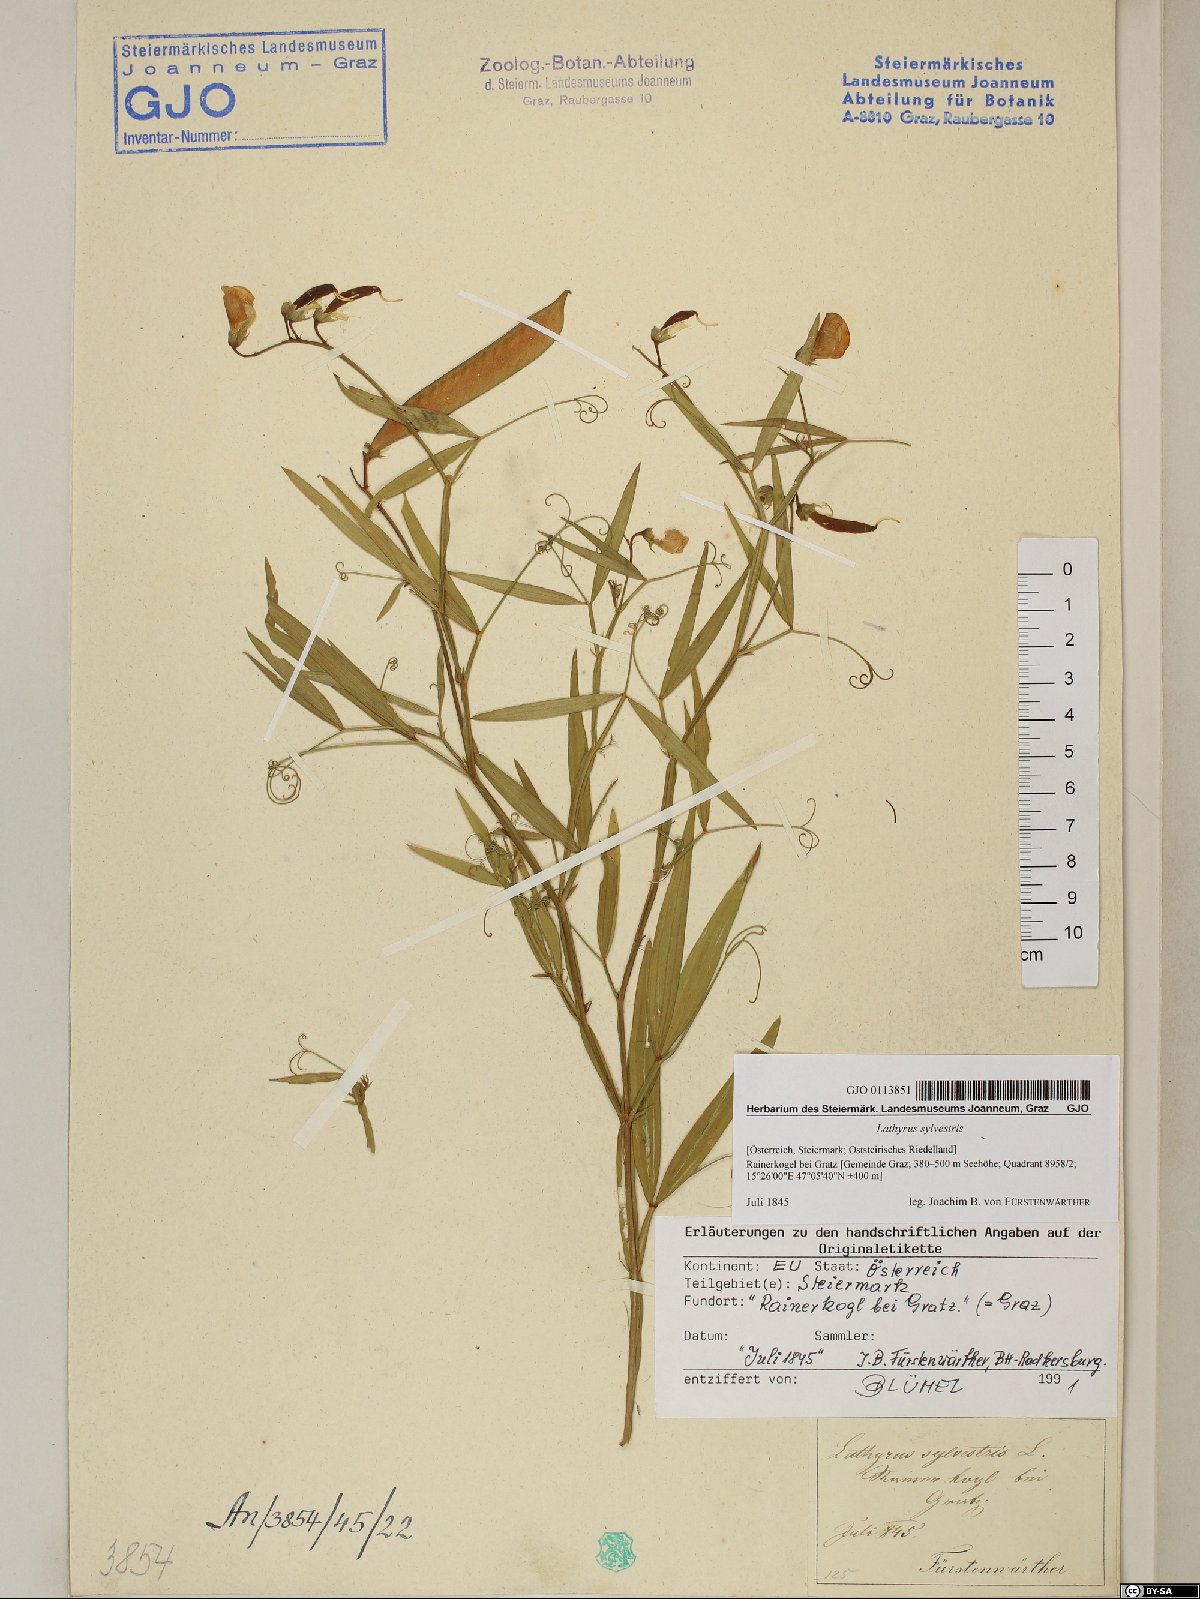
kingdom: Plantae
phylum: Tracheophyta
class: Magnoliopsida
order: Fabales
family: Fabaceae
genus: Lathyrus
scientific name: Lathyrus sylvestris
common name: Flat pea
